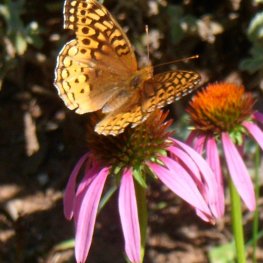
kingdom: Animalia
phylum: Arthropoda
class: Insecta
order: Lepidoptera
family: Nymphalidae
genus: Speyeria
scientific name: Speyeria cybele
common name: Great Spangled Fritillary
